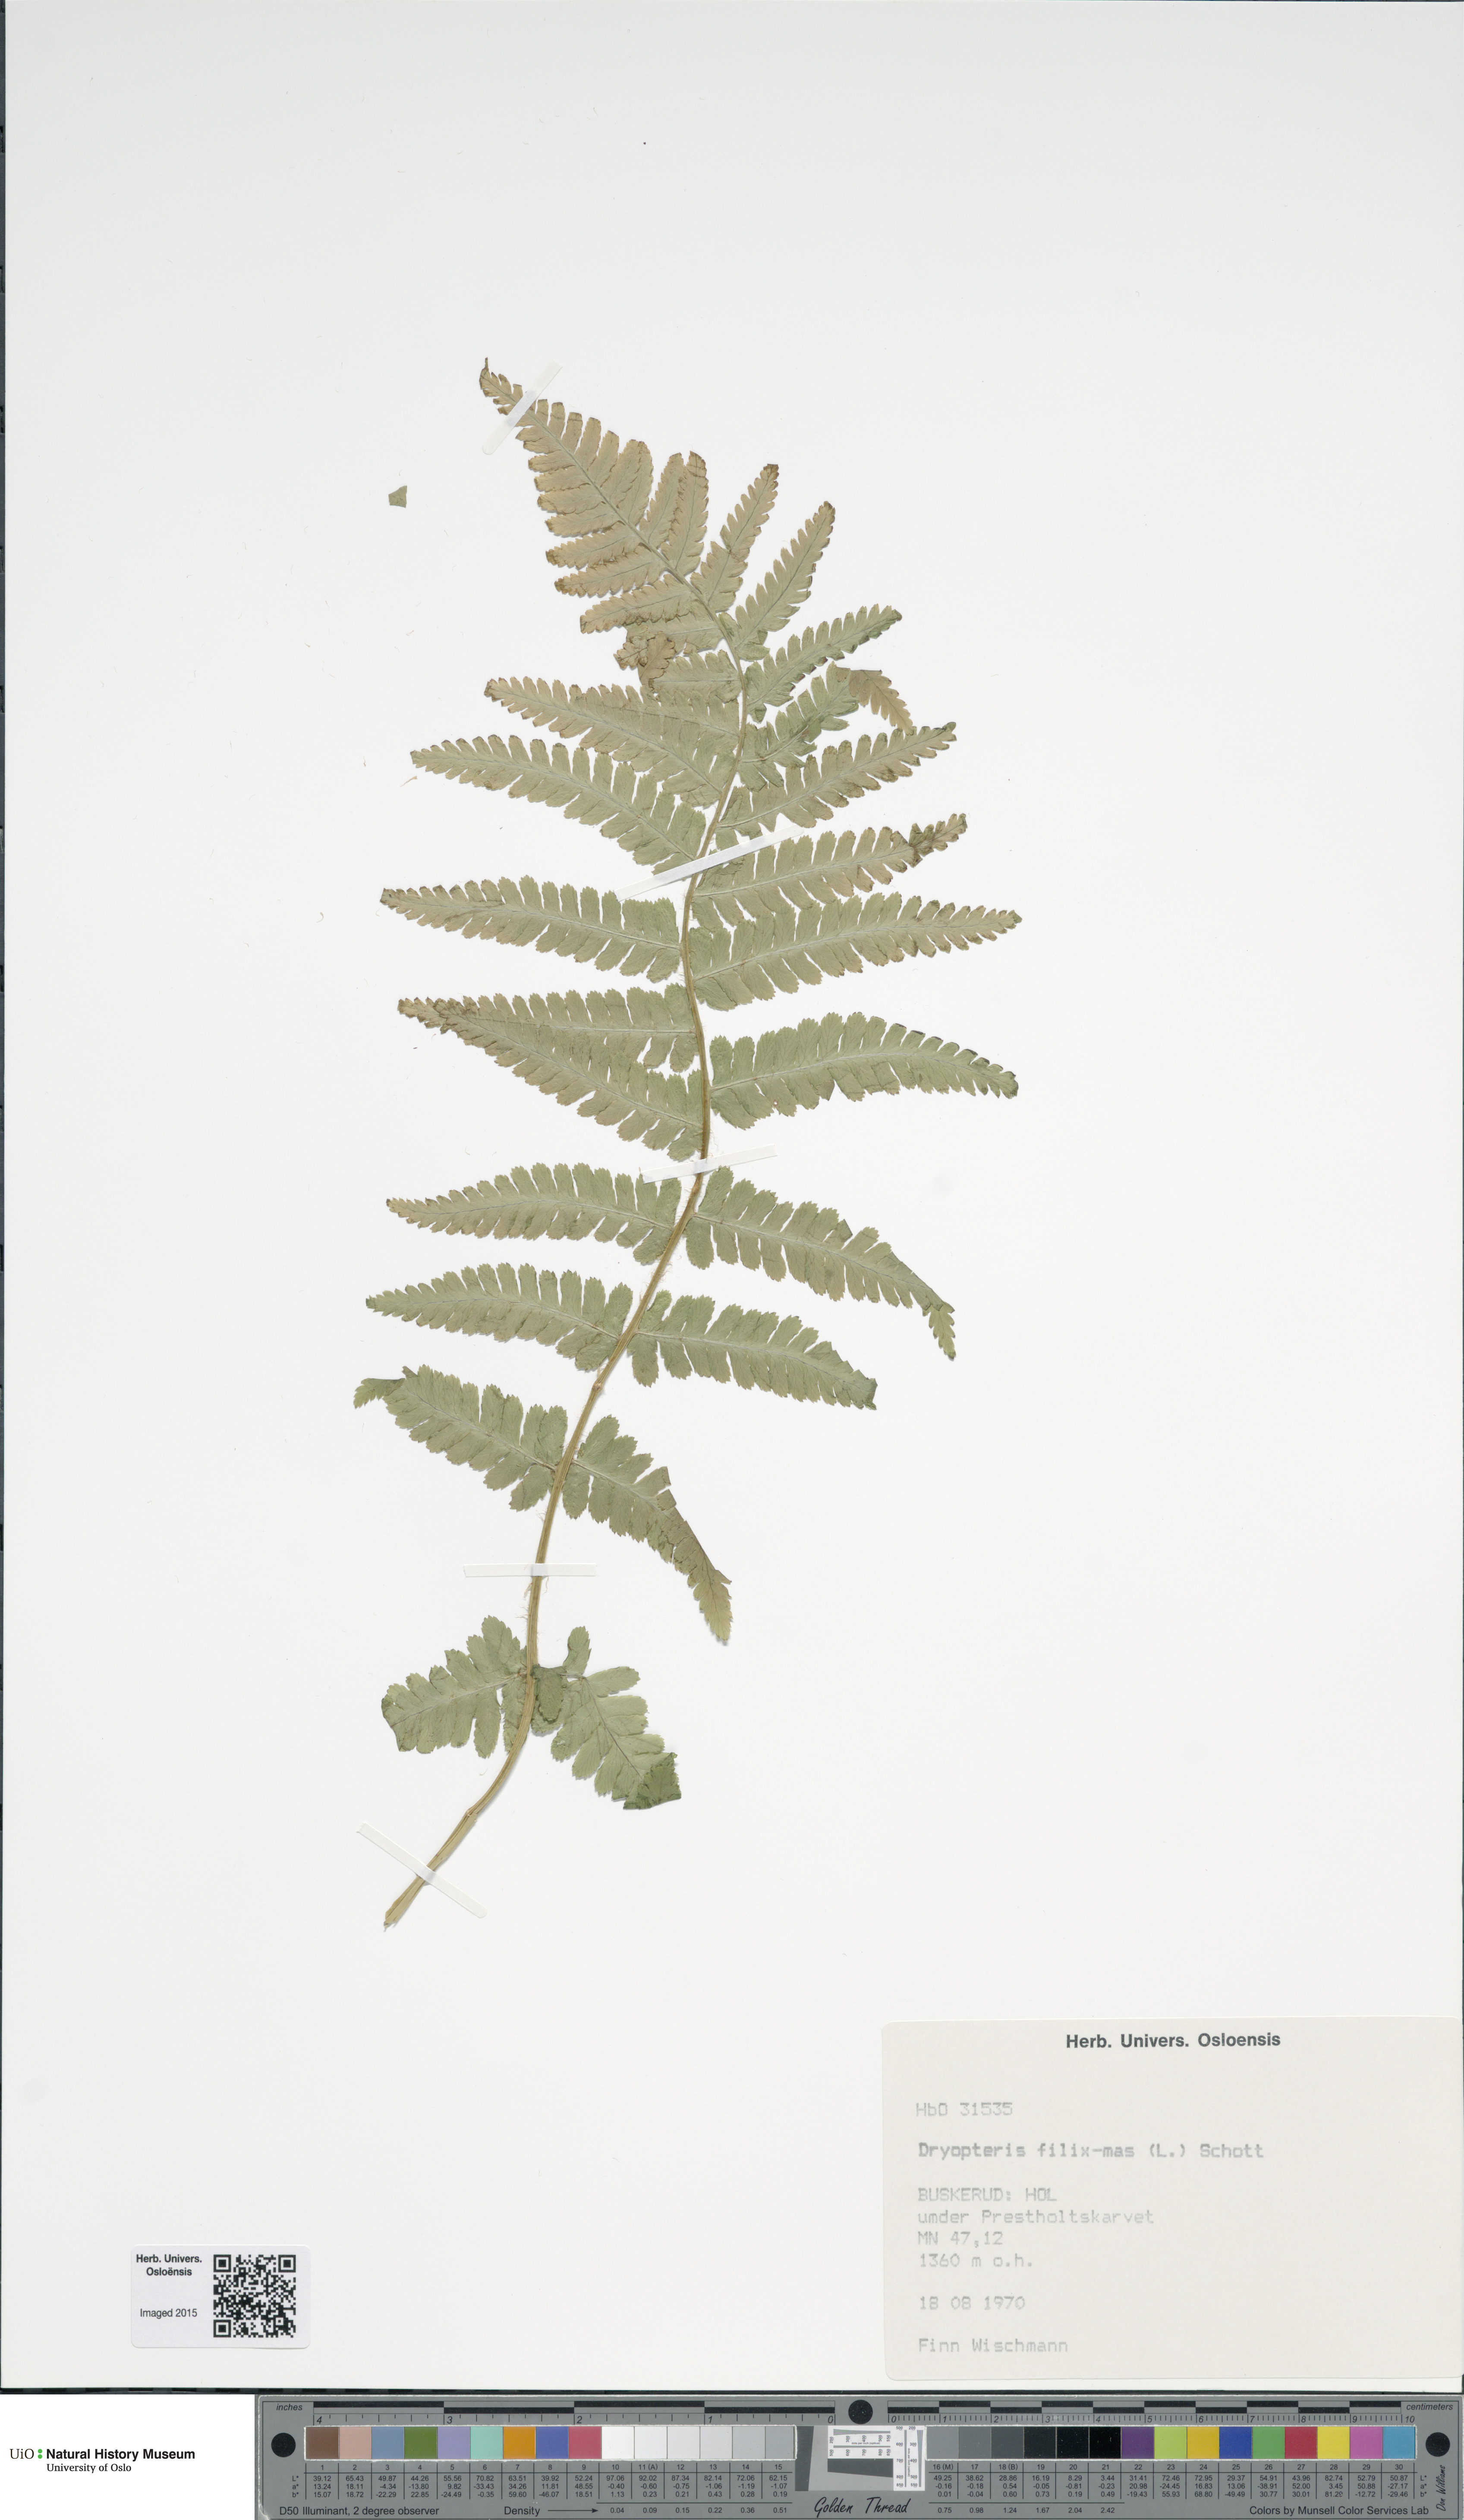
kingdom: Plantae
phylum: Tracheophyta
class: Polypodiopsida
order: Polypodiales
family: Dryopteridaceae
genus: Dryopteris
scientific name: Dryopteris filix-mas
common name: Male fern
